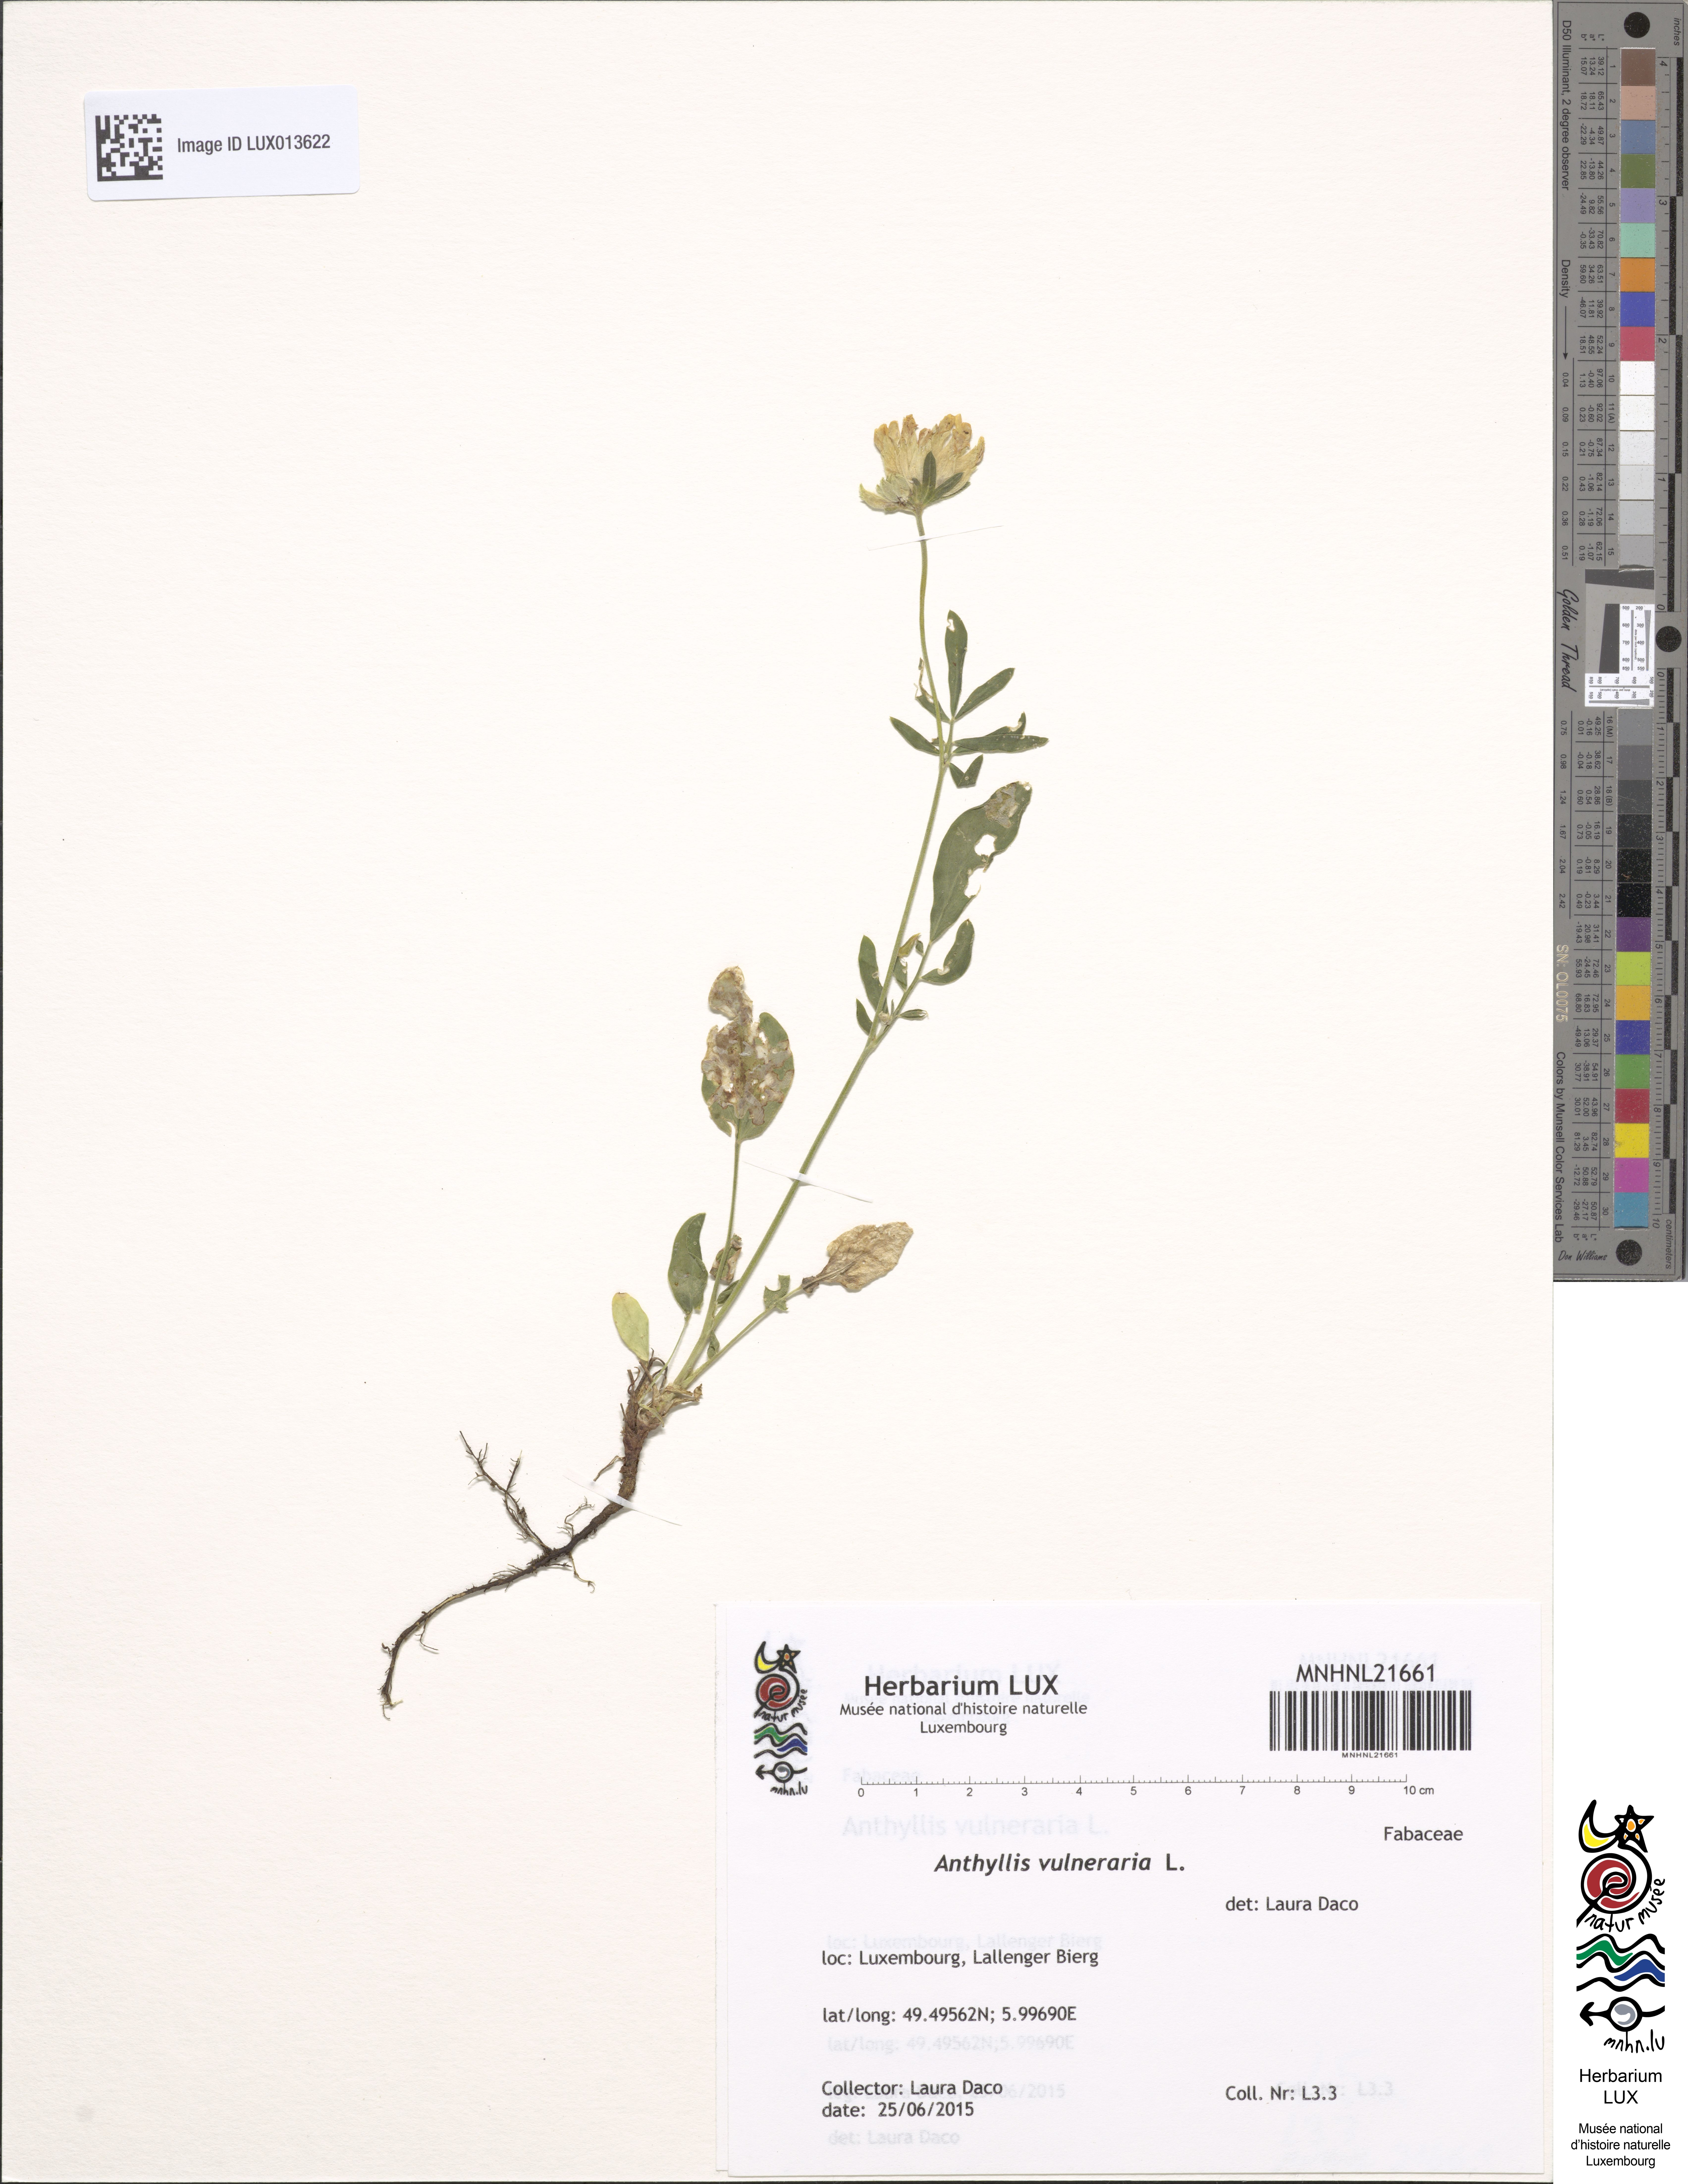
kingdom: Plantae
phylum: Tracheophyta
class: Magnoliopsida
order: Fabales
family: Fabaceae
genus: Anthyllis
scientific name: Anthyllis vulneraria
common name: Kidney vetch
